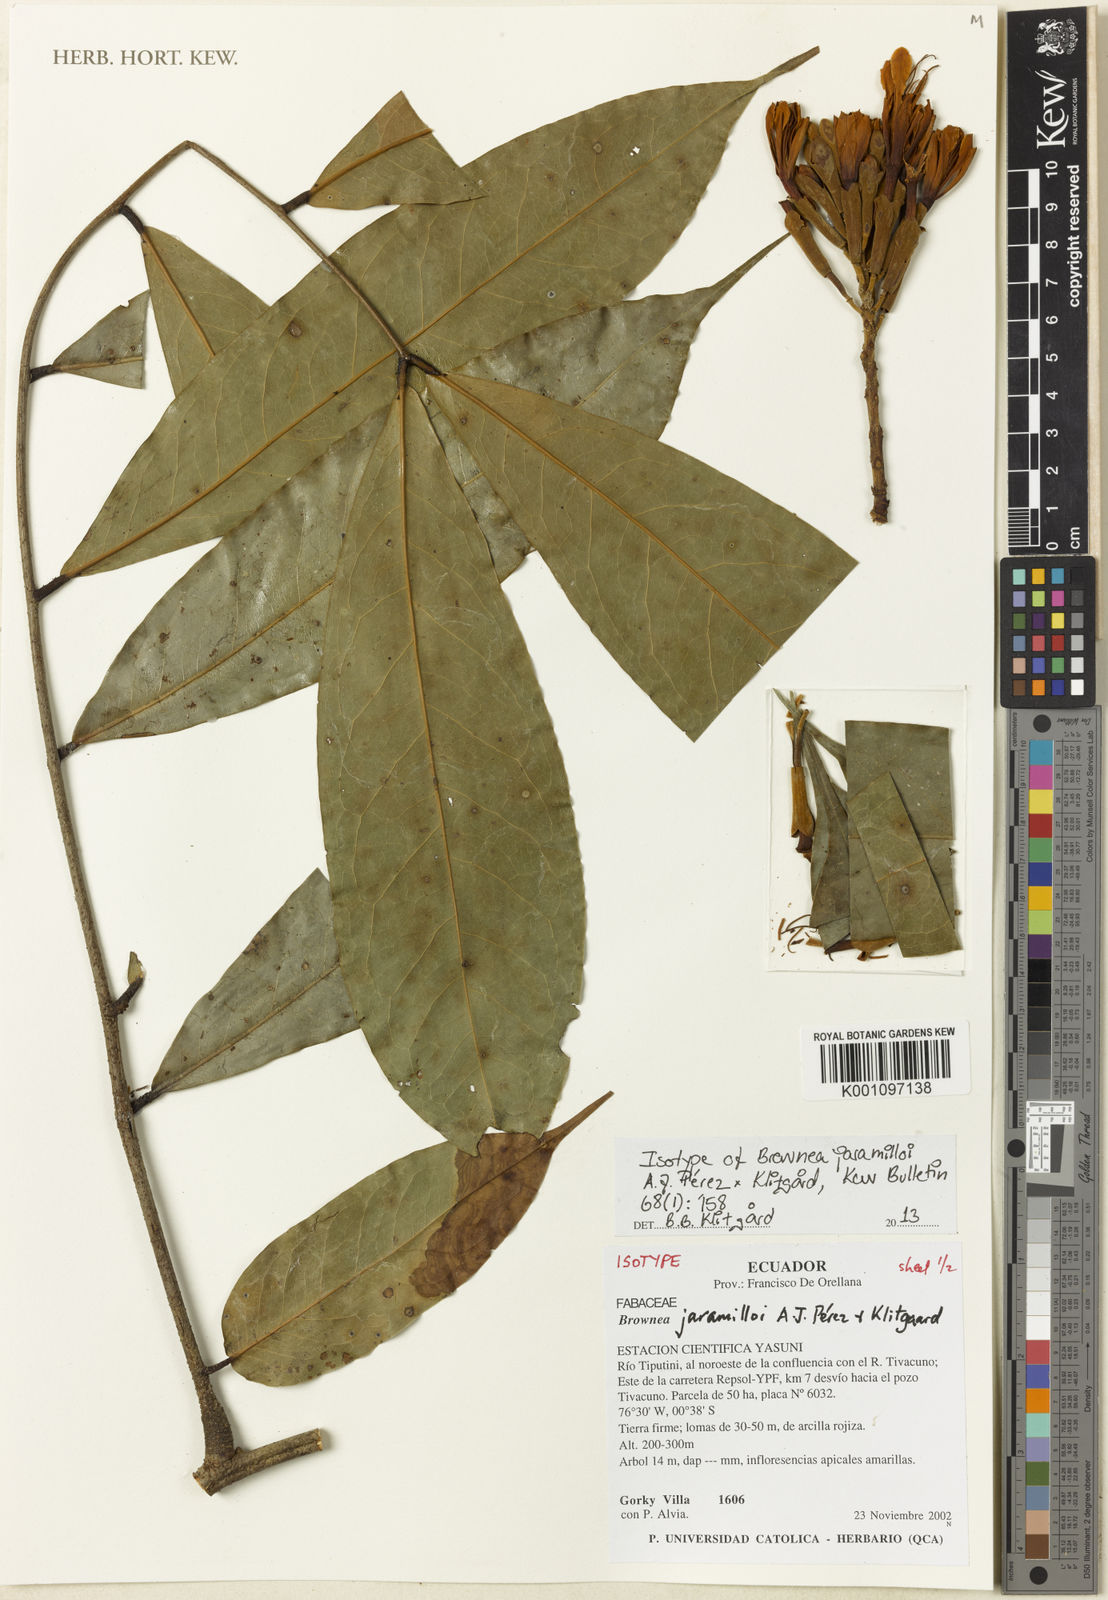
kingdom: Plantae
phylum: Tracheophyta
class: Magnoliopsida
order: Fabales
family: Fabaceae
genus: Brownea
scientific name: Brownea
